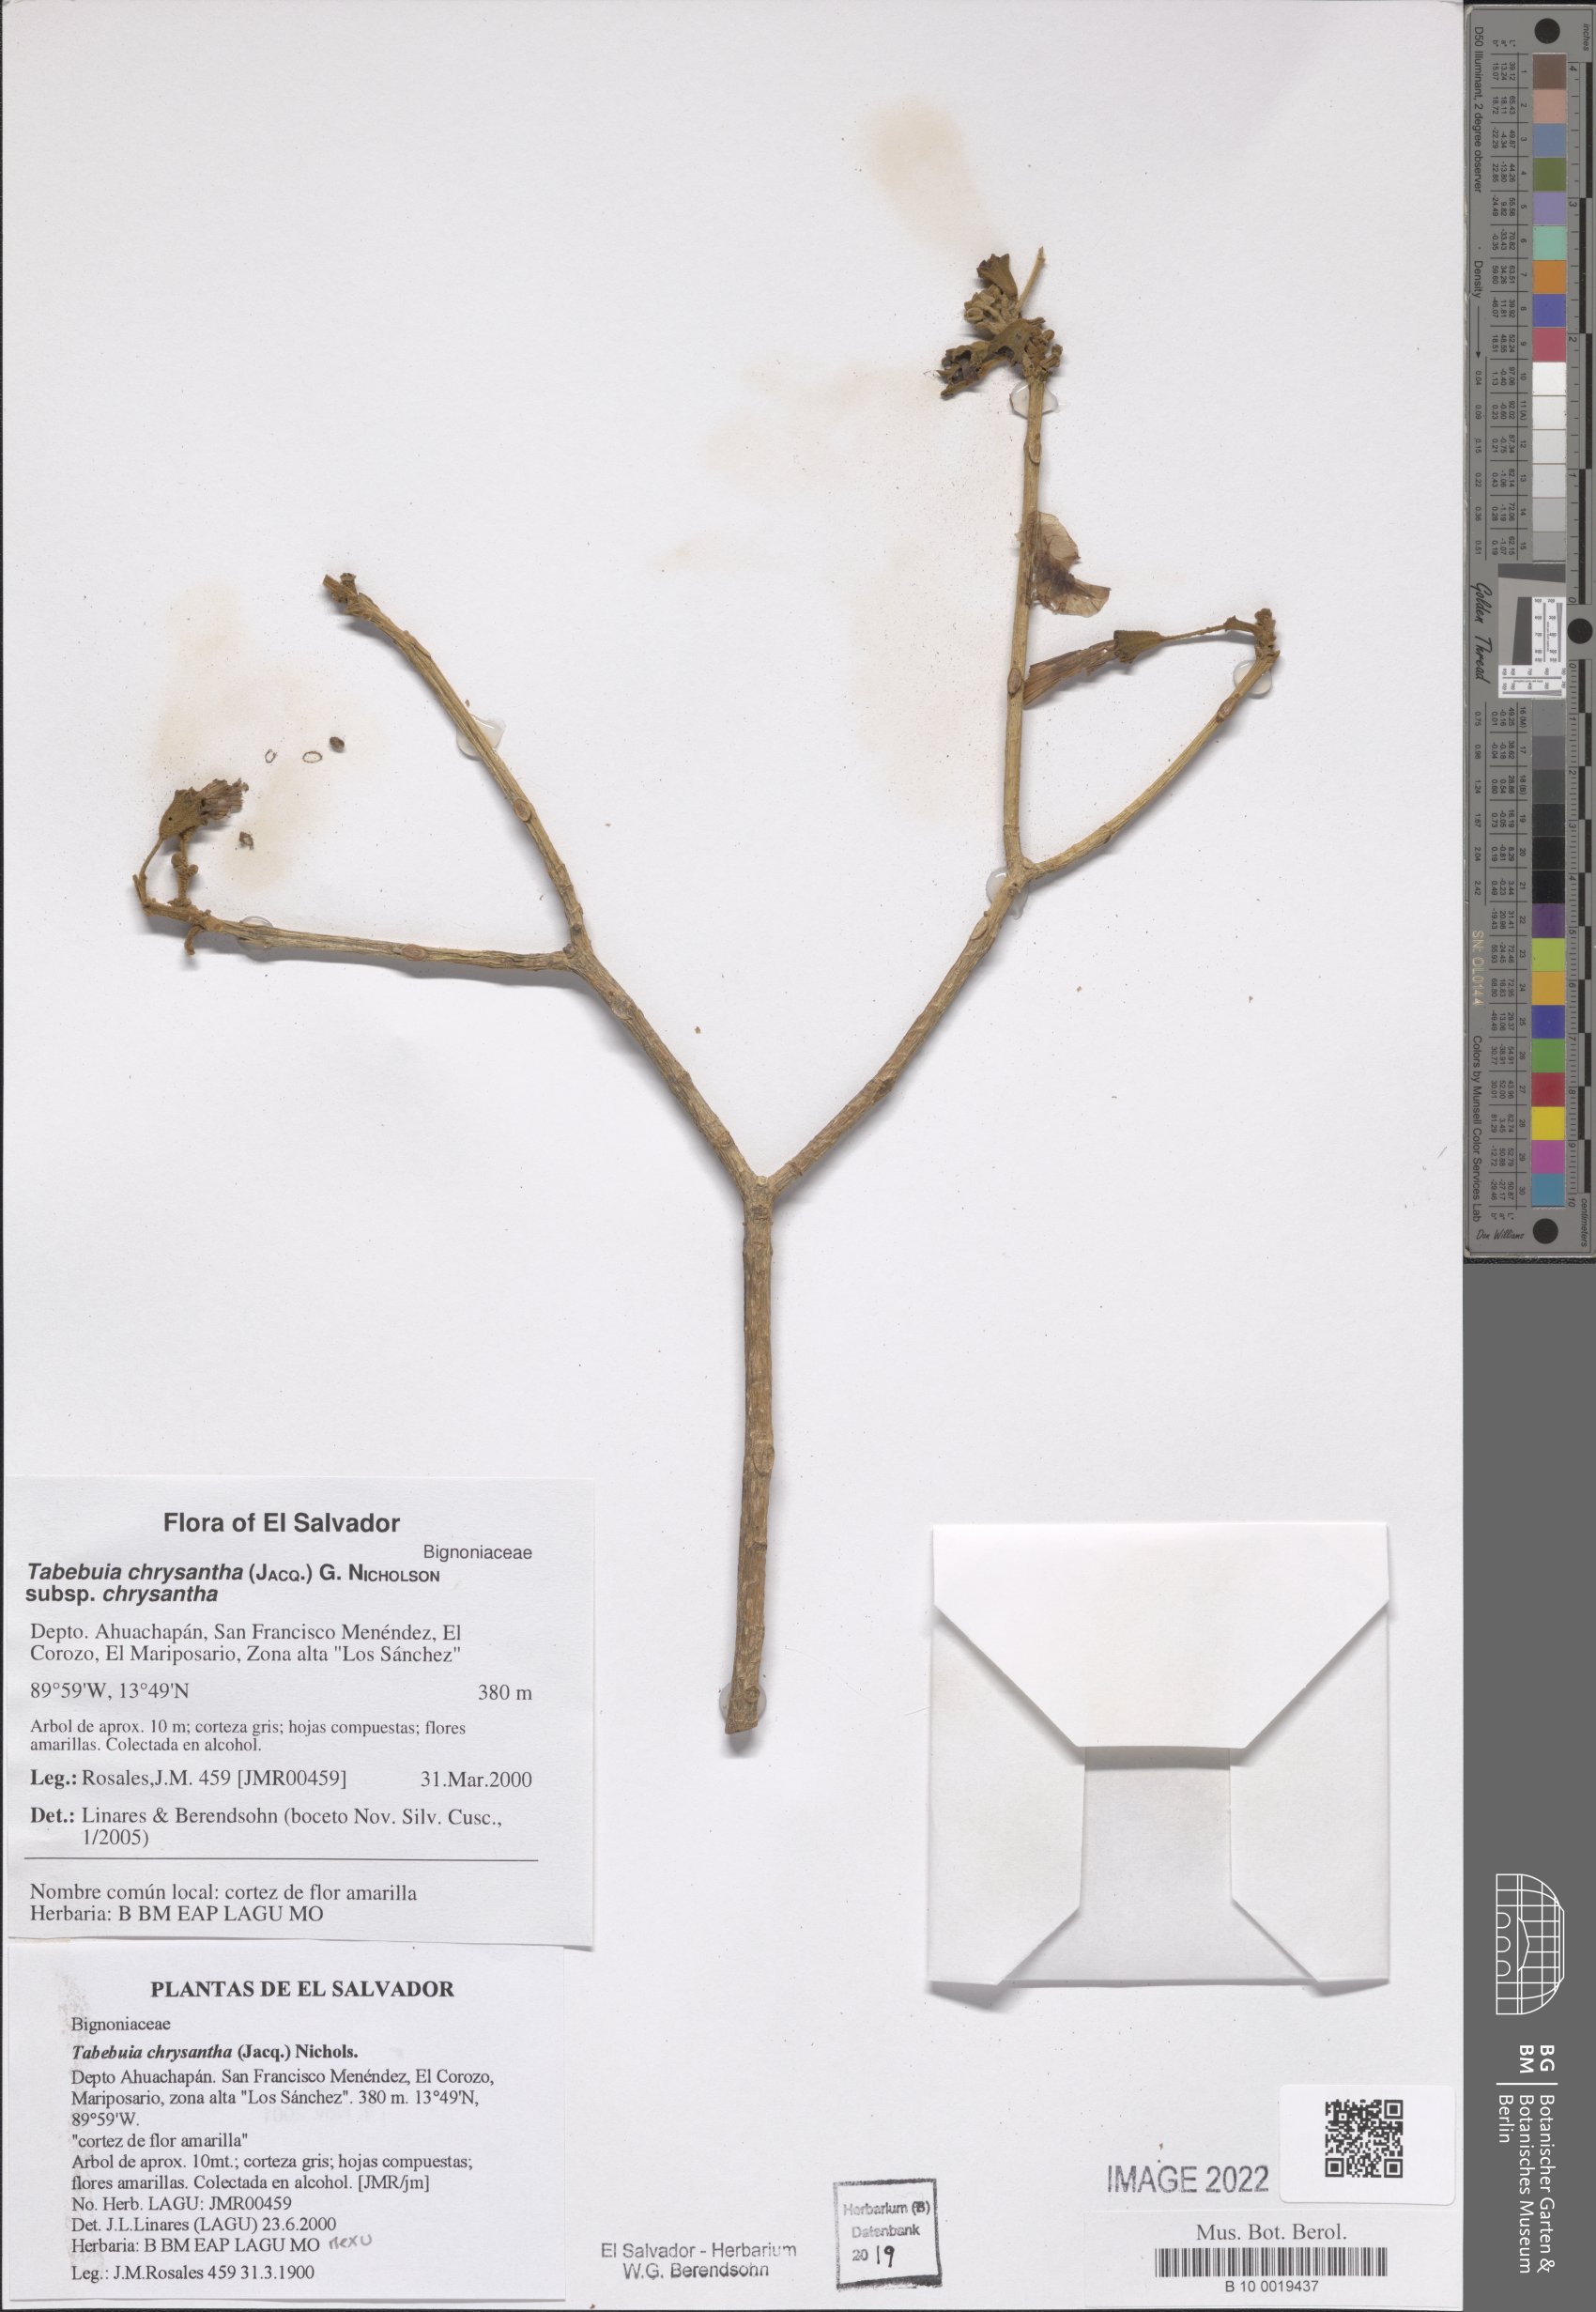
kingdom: Plantae
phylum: Tracheophyta
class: Magnoliopsida
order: Lamiales
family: Bignoniaceae
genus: Handroanthus
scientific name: Handroanthus chrysanthus
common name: Trumpet trees
